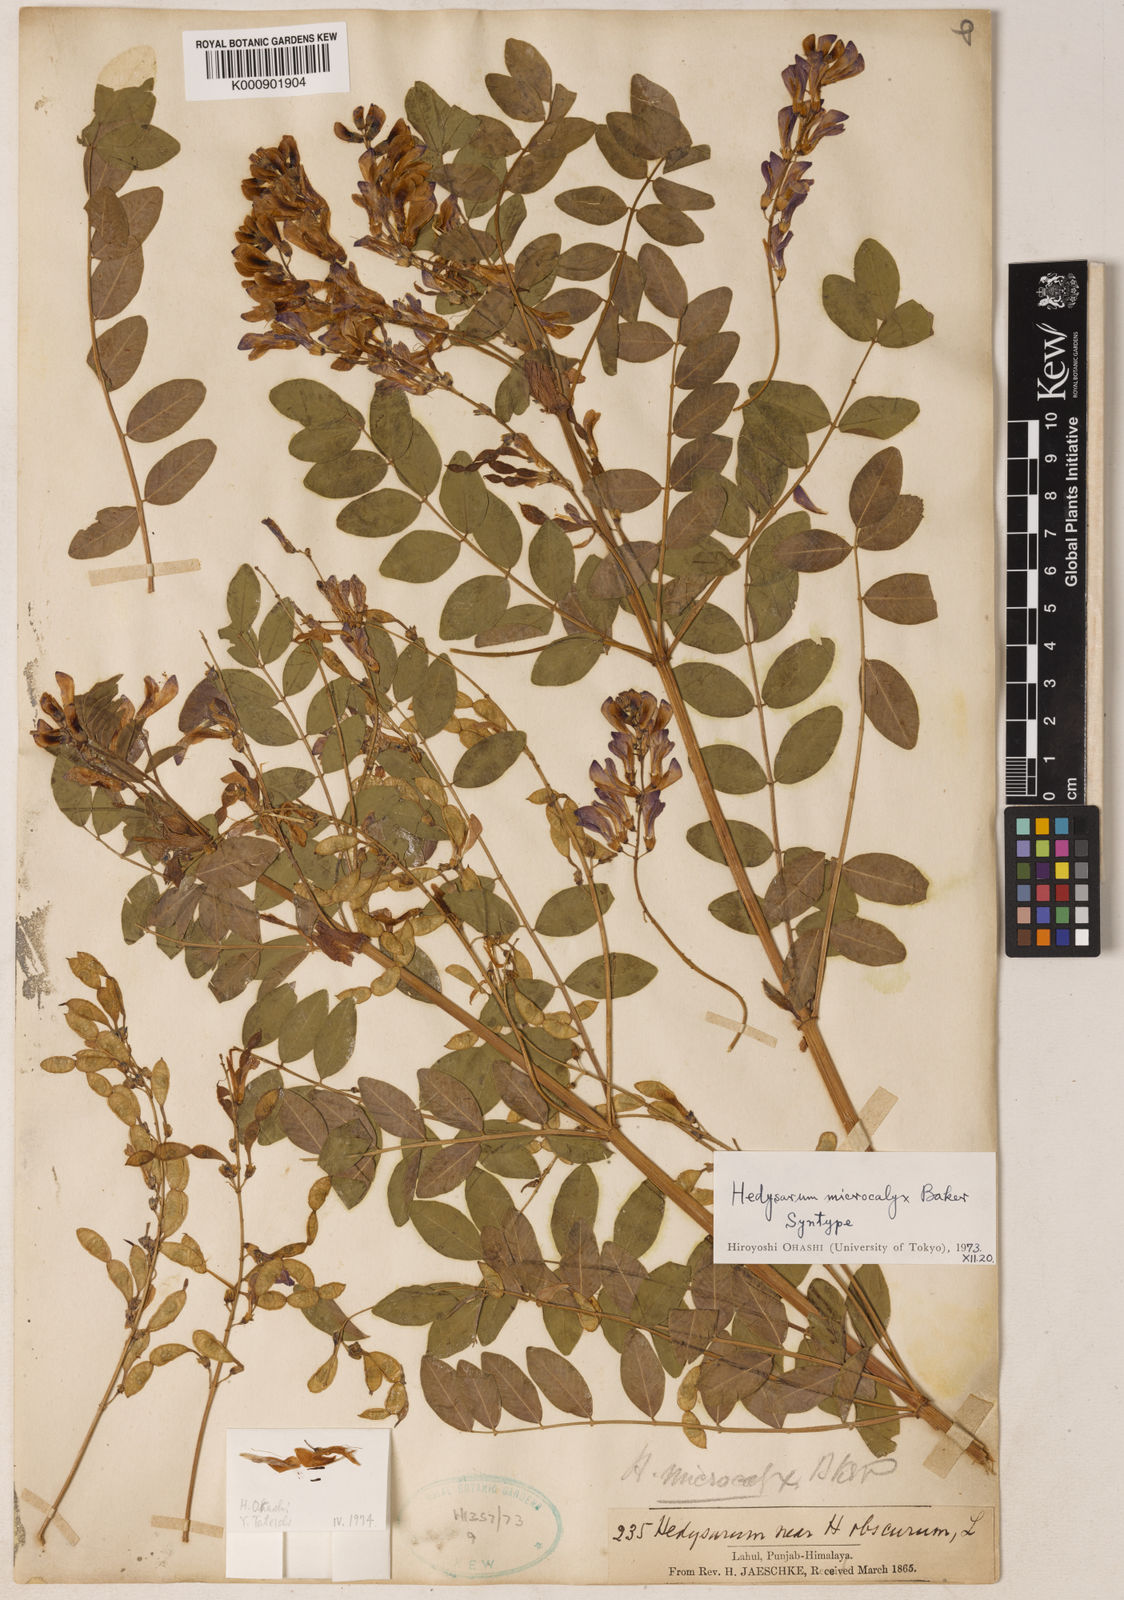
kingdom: Plantae
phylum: Tracheophyta
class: Magnoliopsida
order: Fabales
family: Fabaceae
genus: Hedysarum
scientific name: Hedysarum microcalyx
